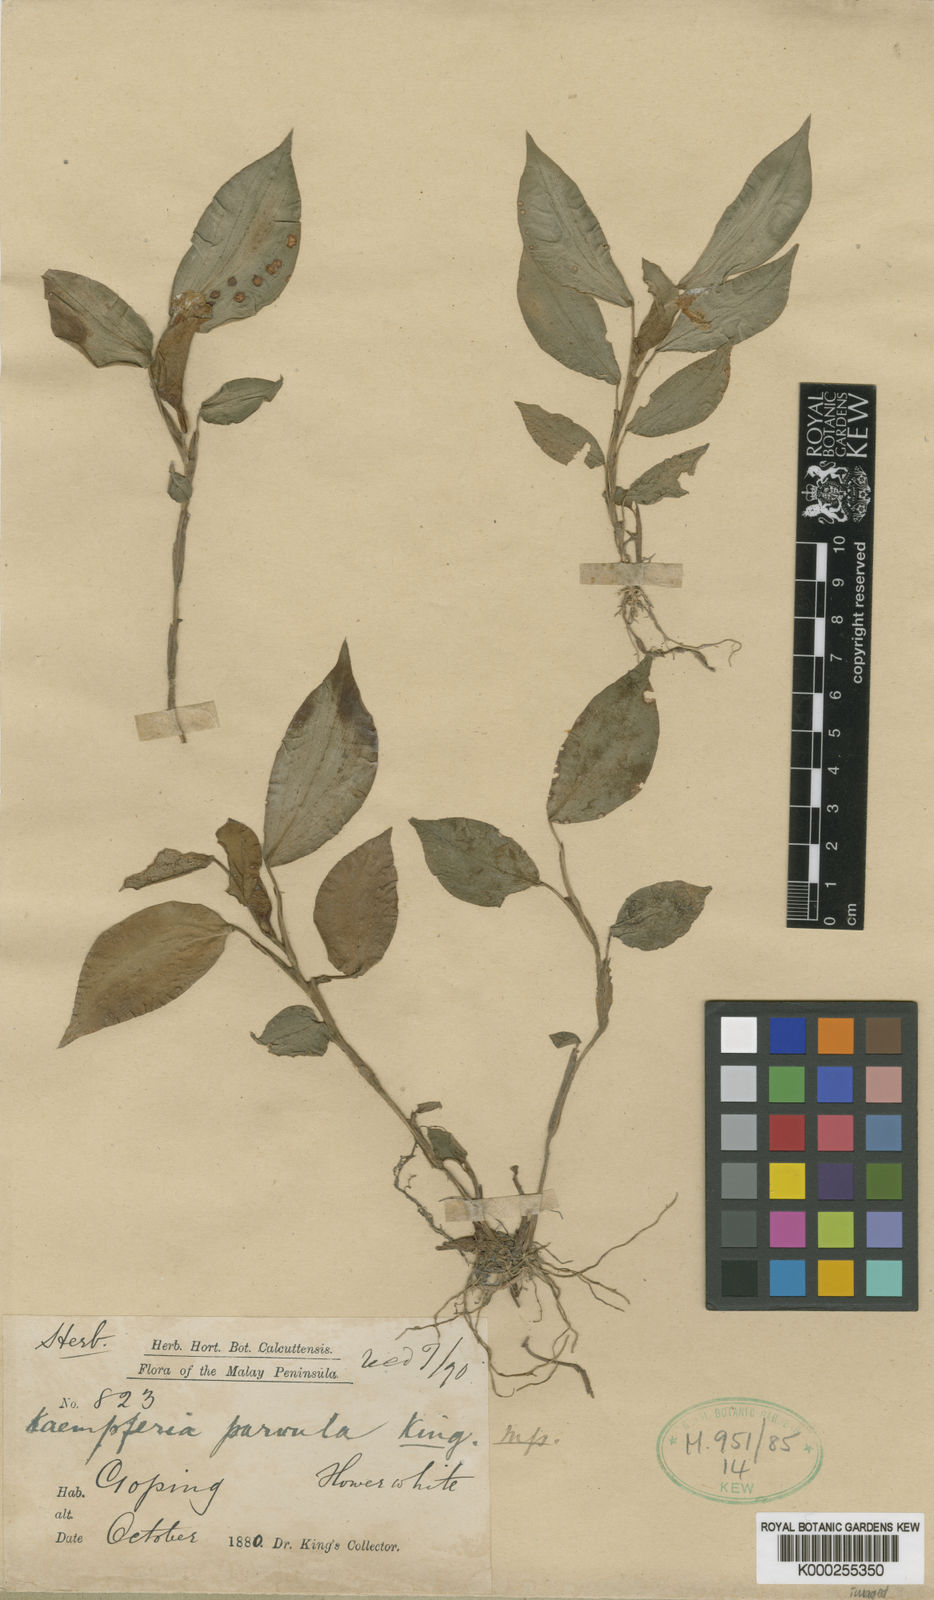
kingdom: Plantae
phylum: Tracheophyta
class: Liliopsida
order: Zingiberales
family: Zingiberaceae
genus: Camptandra
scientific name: Camptandra parvula
